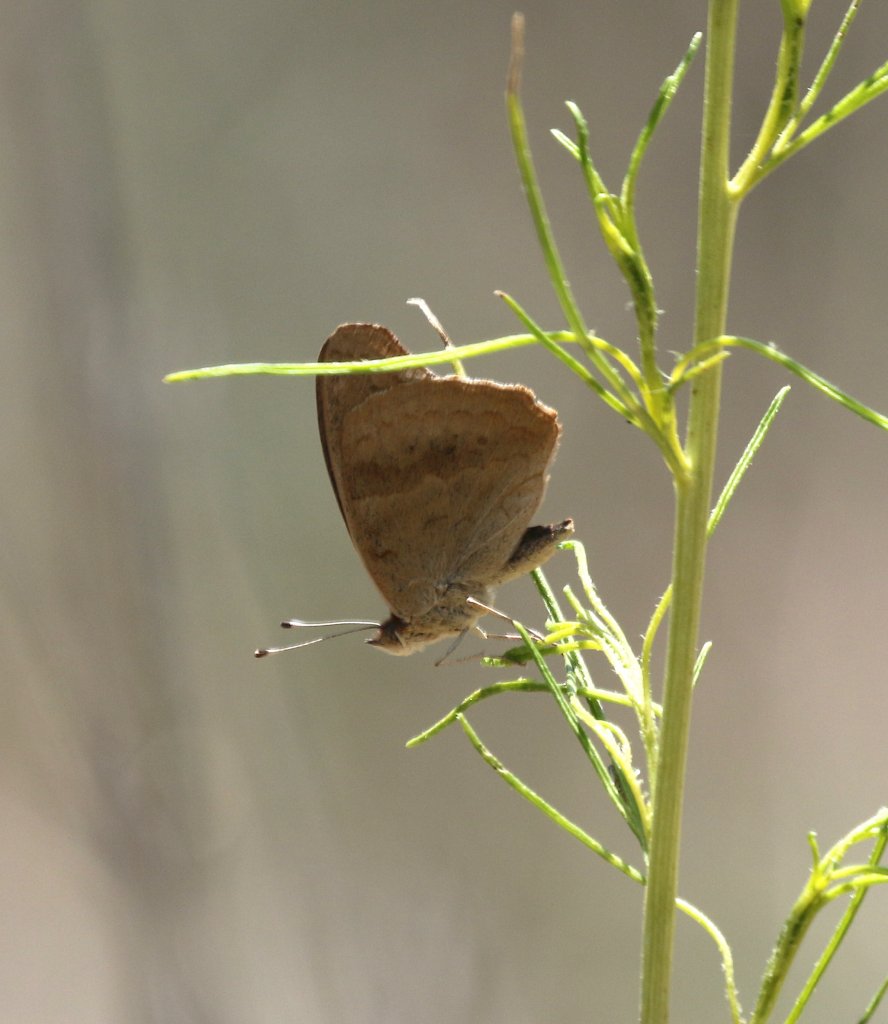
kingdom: Animalia
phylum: Arthropoda
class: Insecta
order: Lepidoptera
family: Nymphalidae
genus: Junonia
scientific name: Junonia lavinia
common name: Tropical Buckeye
